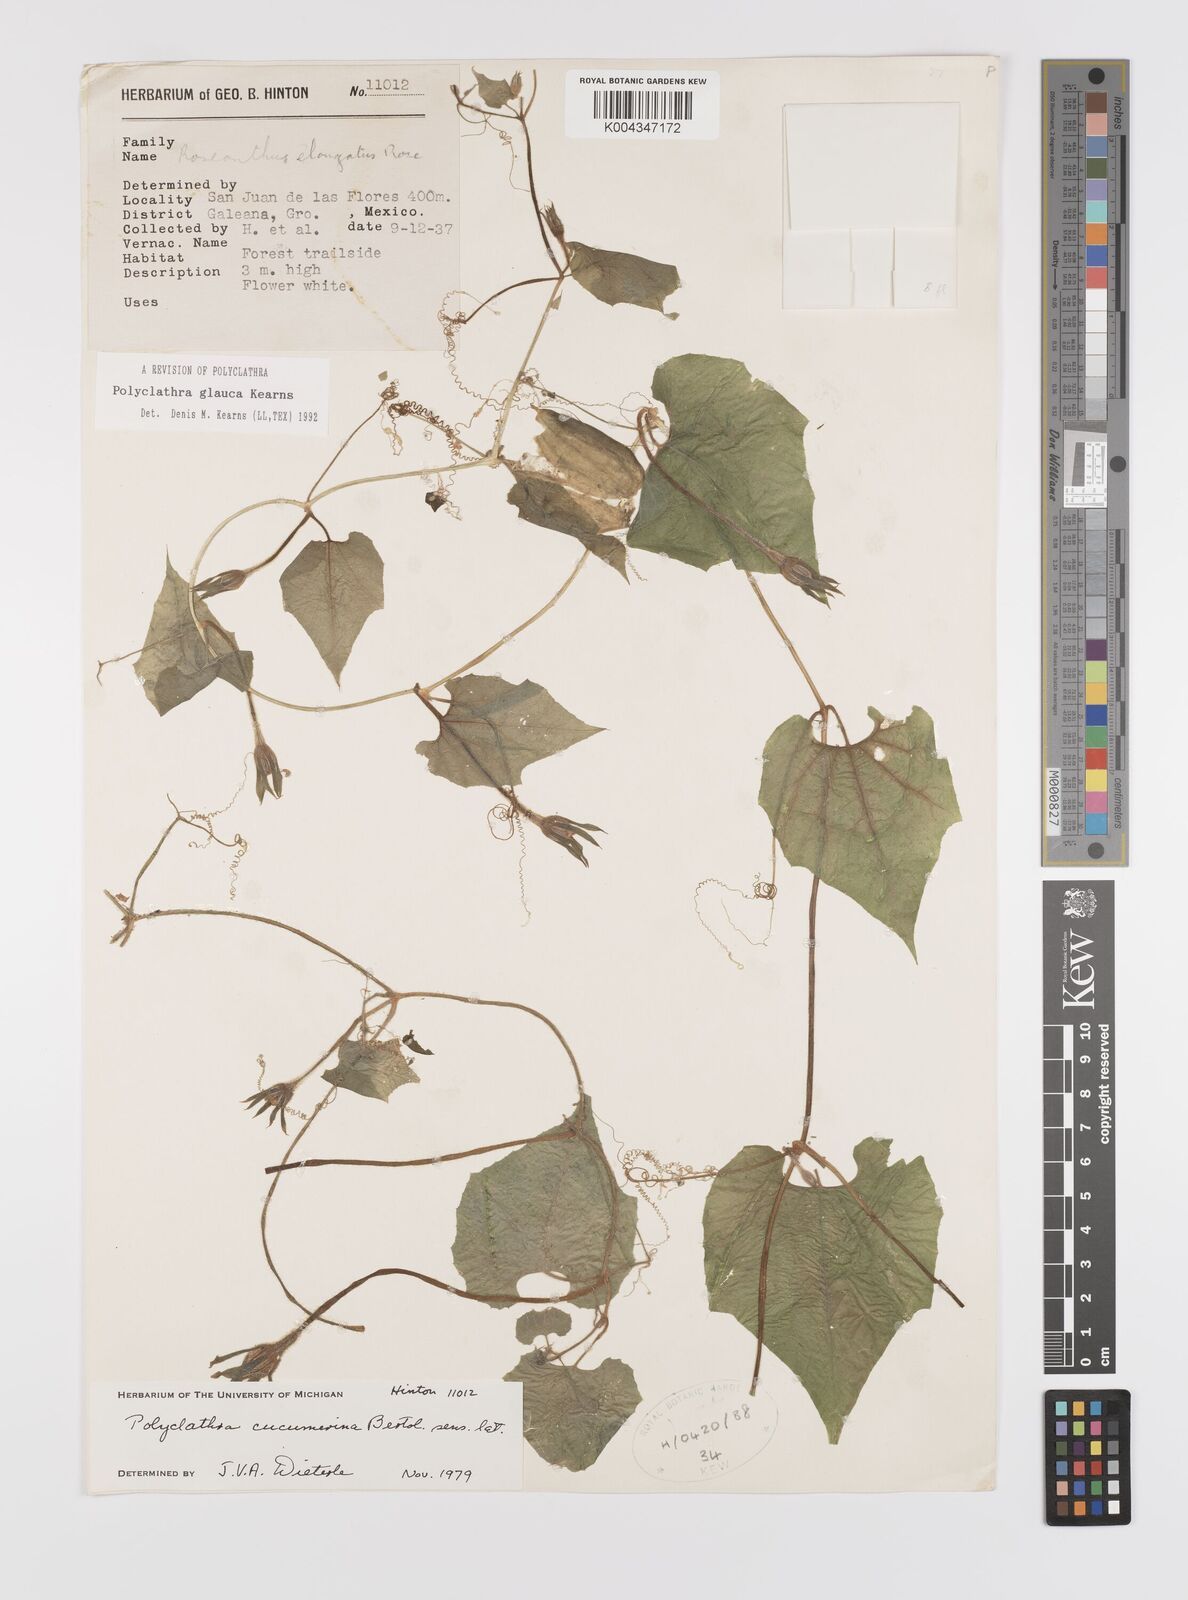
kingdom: Plantae
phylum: Tracheophyta
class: Magnoliopsida
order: Cucurbitales
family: Cucurbitaceae
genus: Polyclathra
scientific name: Polyclathra
